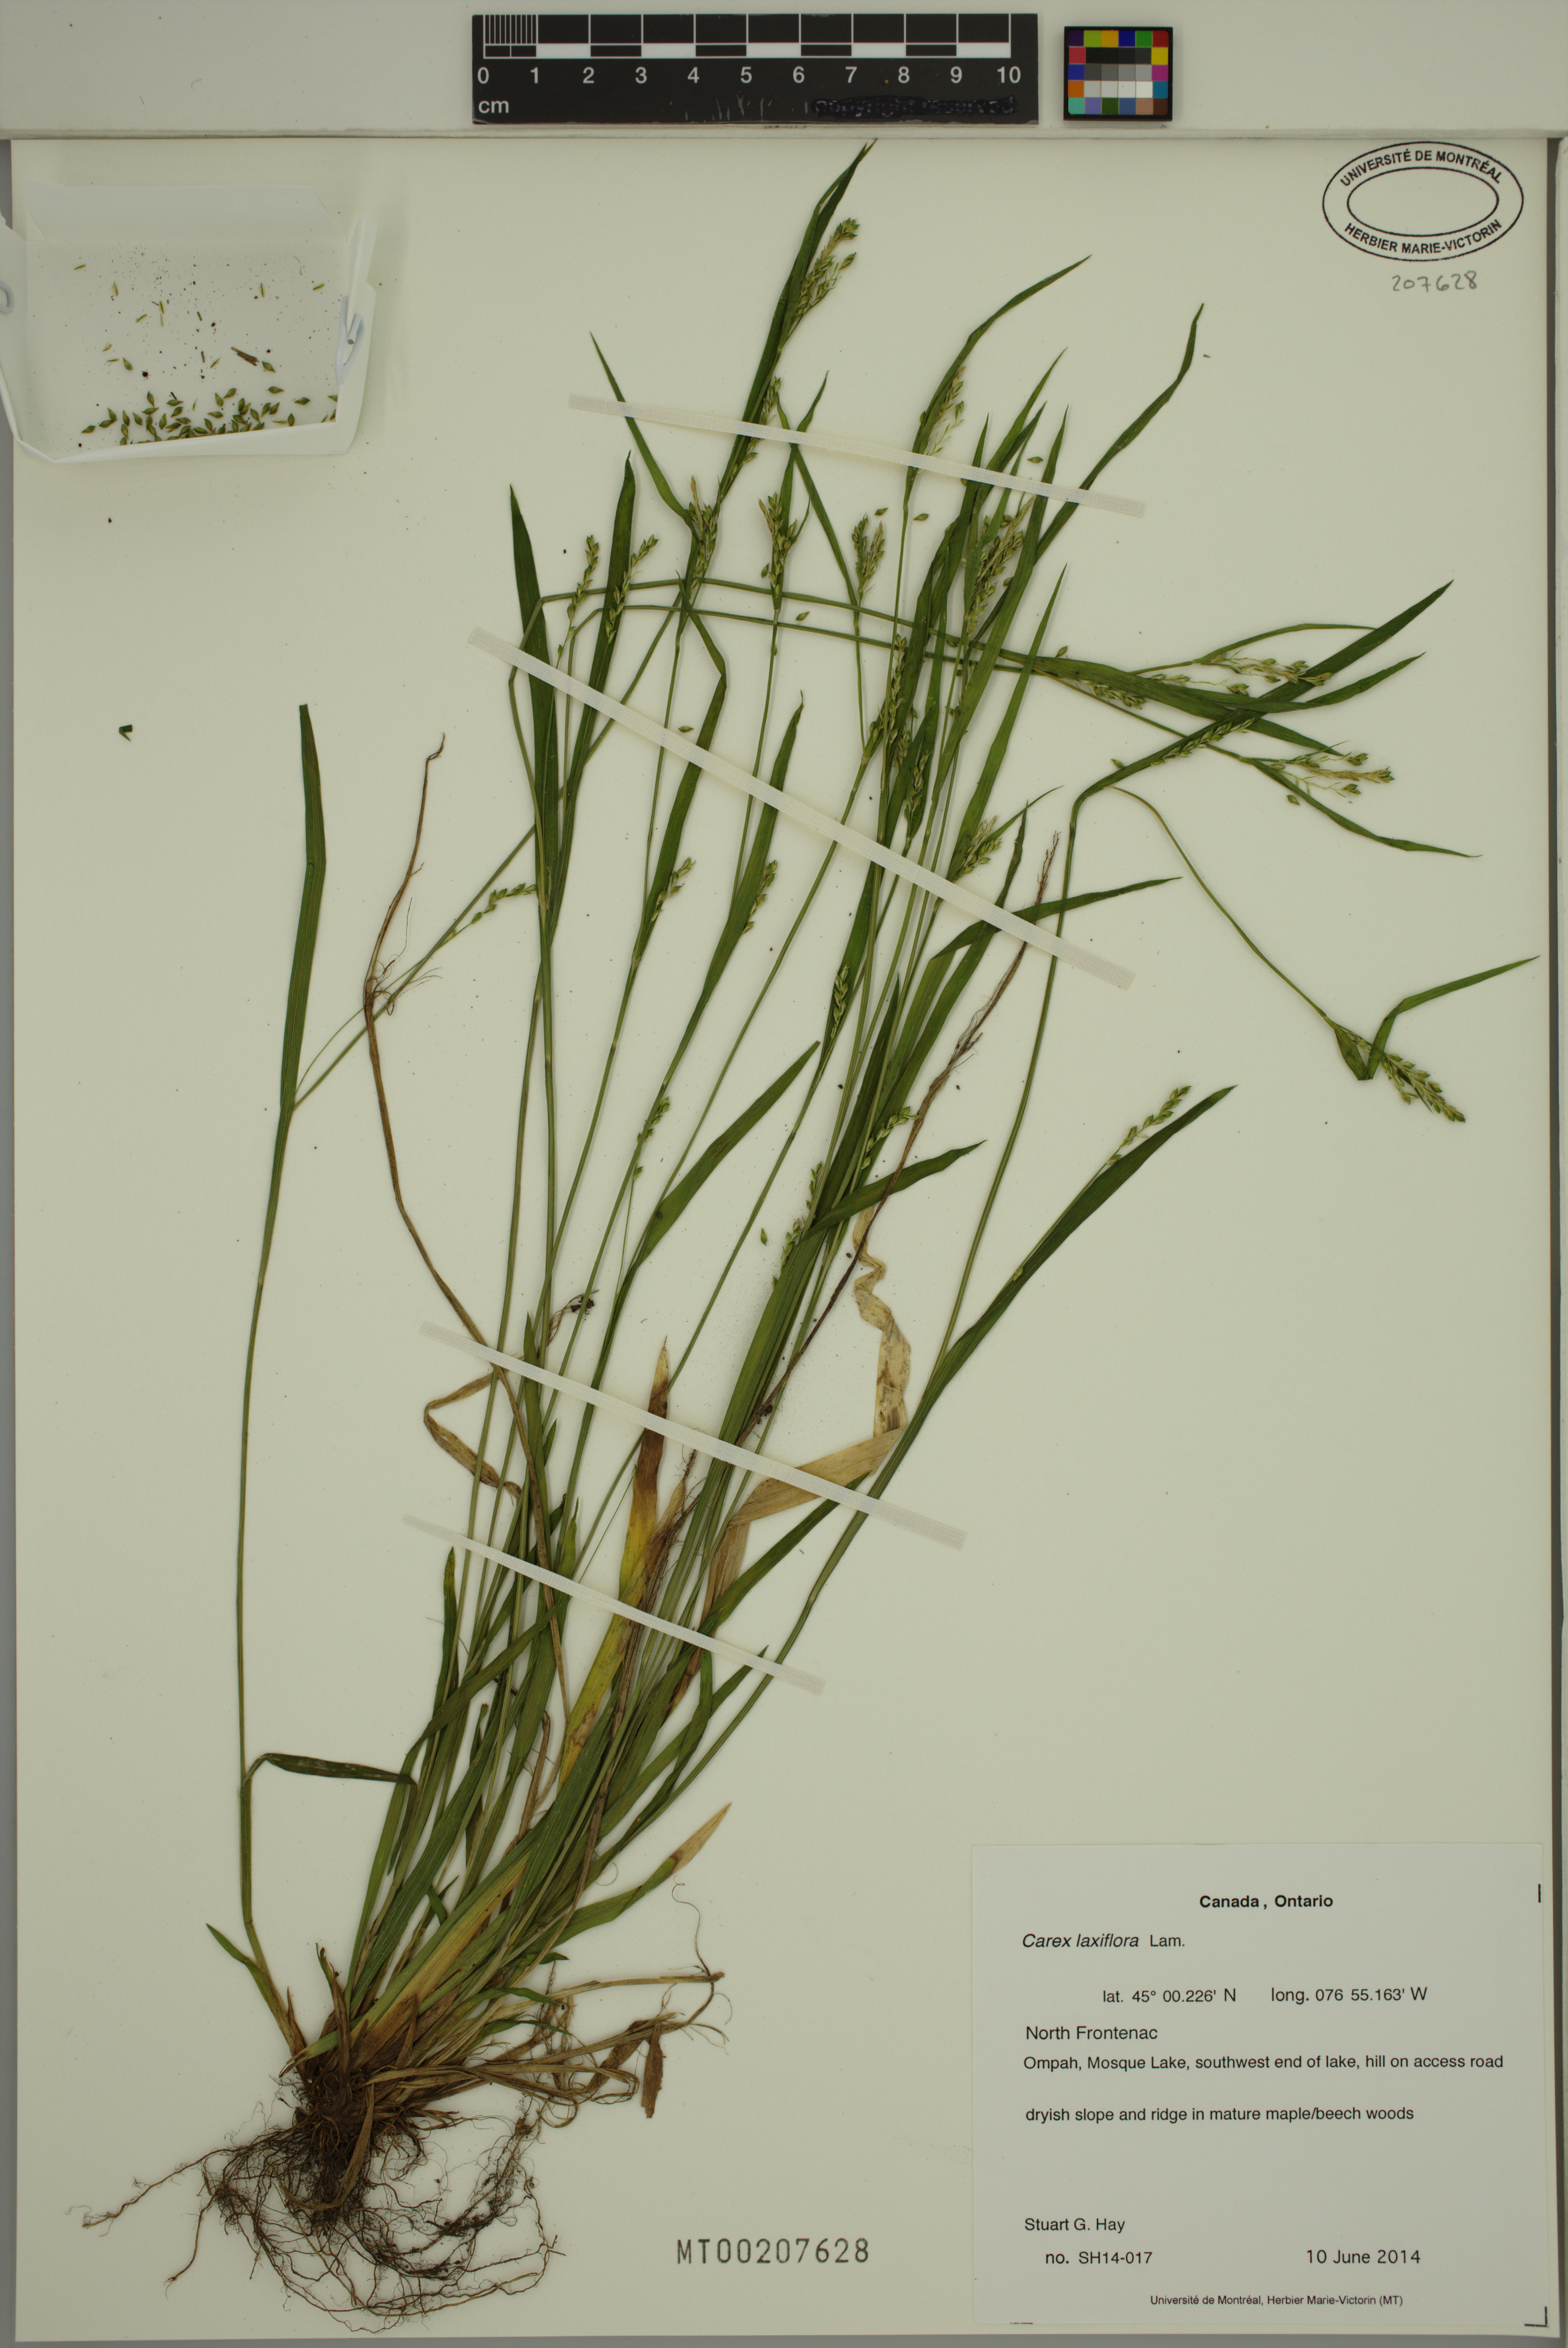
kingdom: Plantae
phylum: Tracheophyta
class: Liliopsida
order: Poales
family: Cyperaceae
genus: Carex
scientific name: Carex laxiflora
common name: Beech wood sedge
